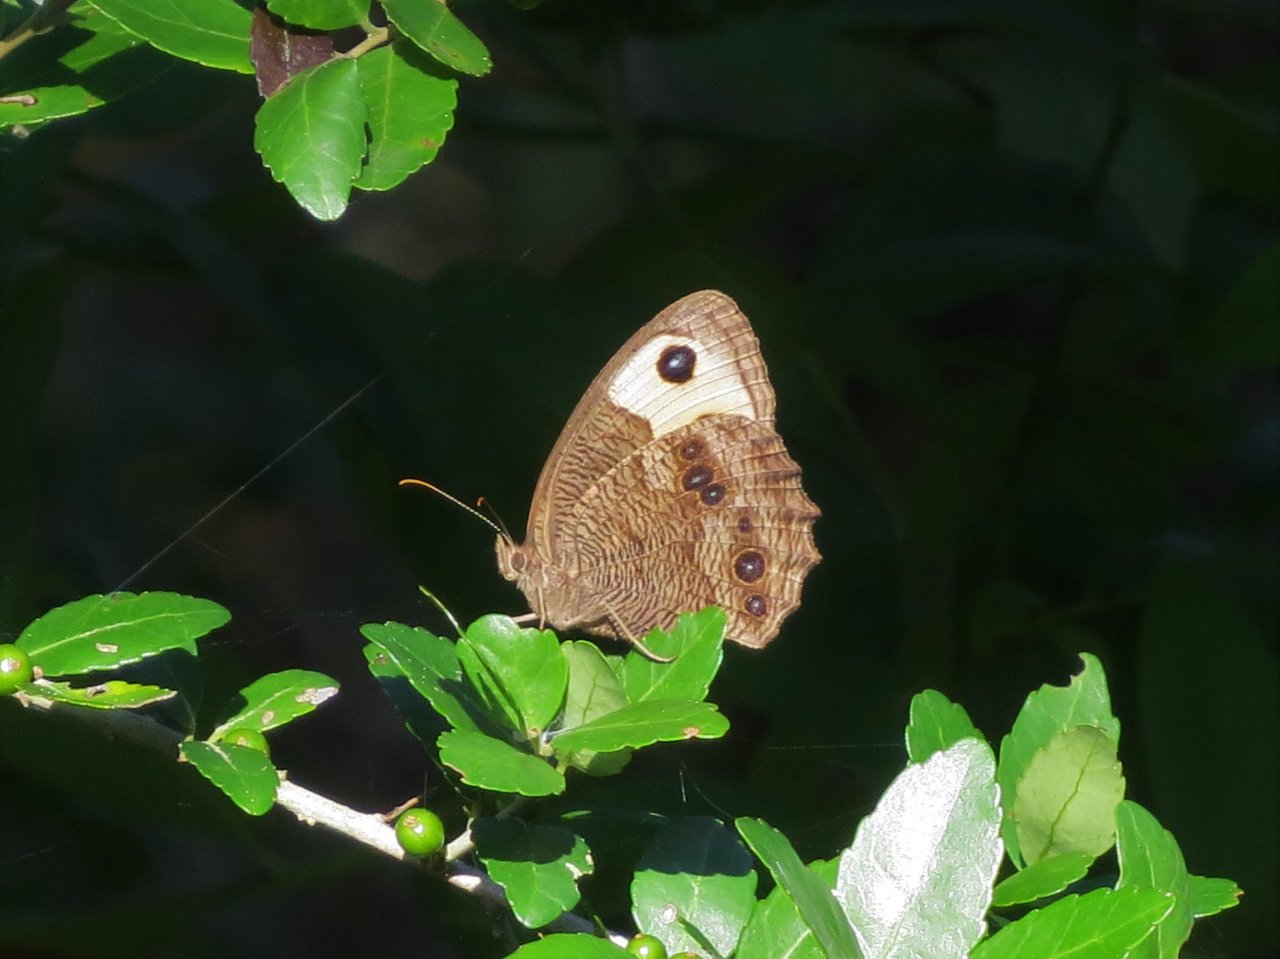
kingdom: Animalia
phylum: Arthropoda
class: Insecta
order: Lepidoptera
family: Nymphalidae
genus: Cercyonis
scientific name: Cercyonis pegala
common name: Common Wood-Nymph
